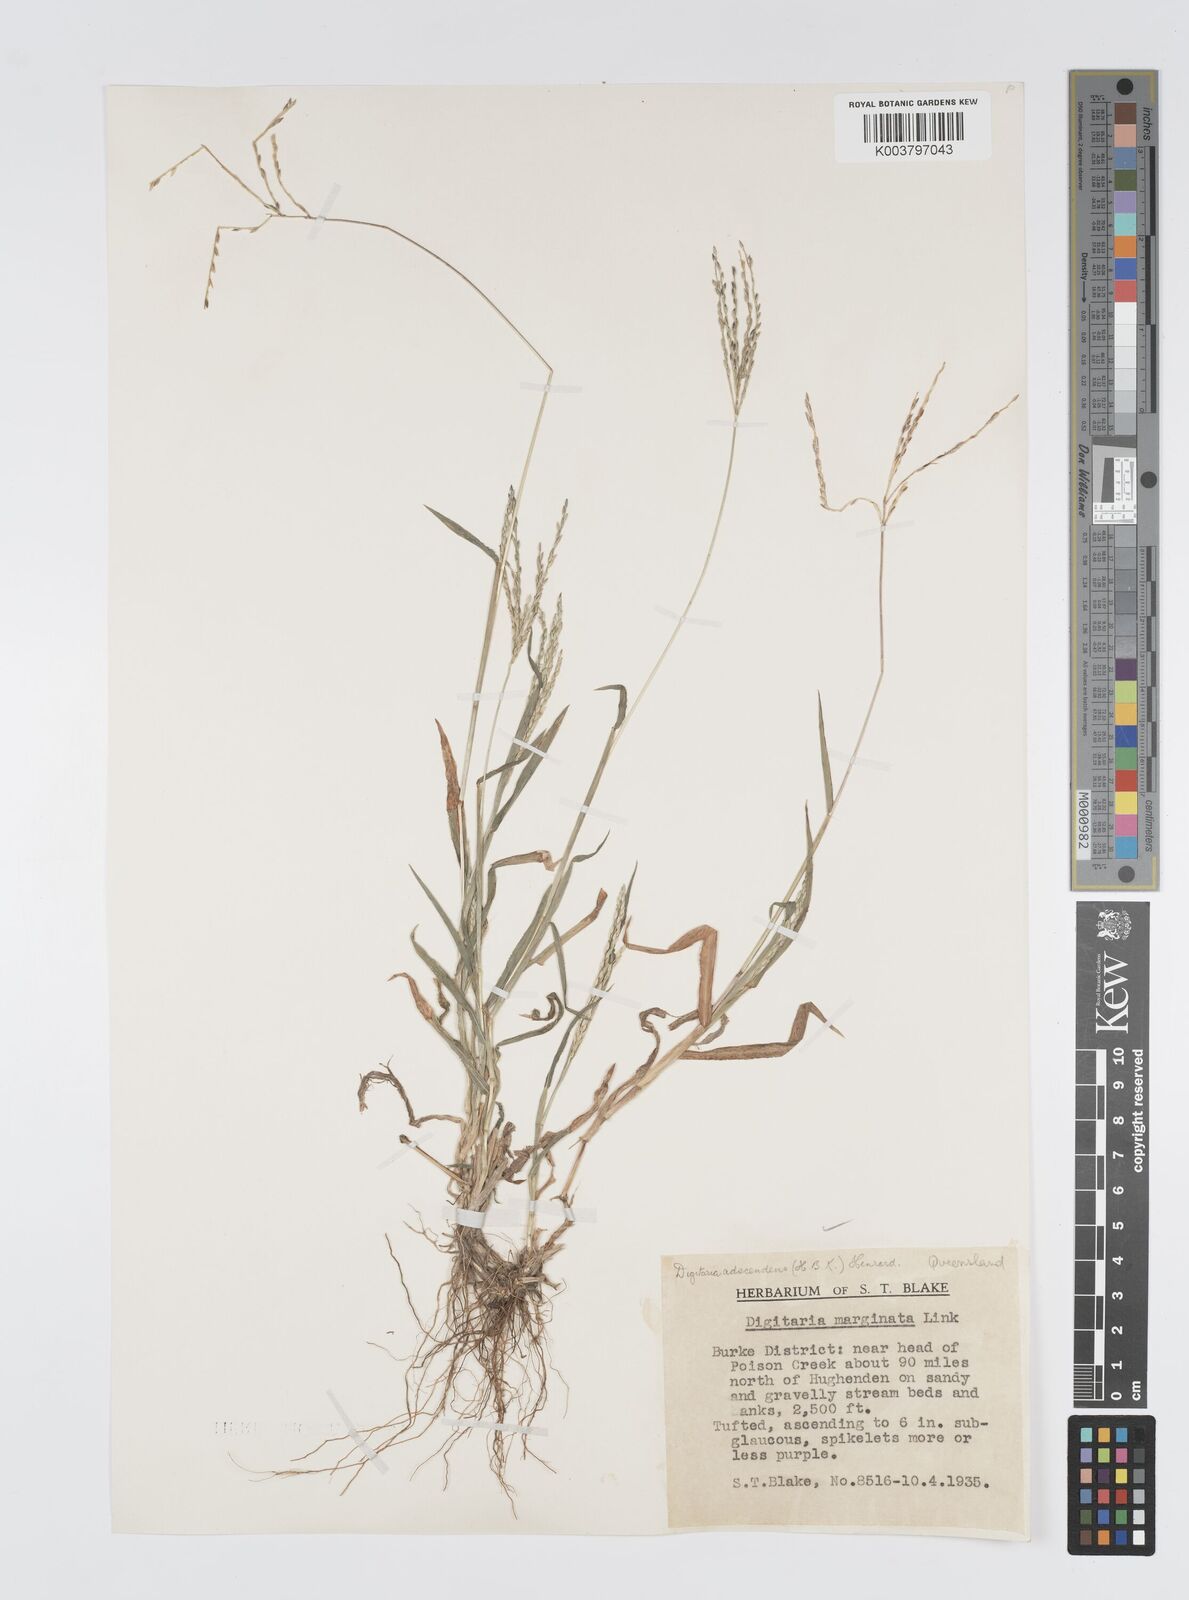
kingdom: Plantae
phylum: Tracheophyta
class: Liliopsida
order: Poales
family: Poaceae
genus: Digitaria
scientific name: Digitaria ciliaris
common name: Tropical finger-grass
